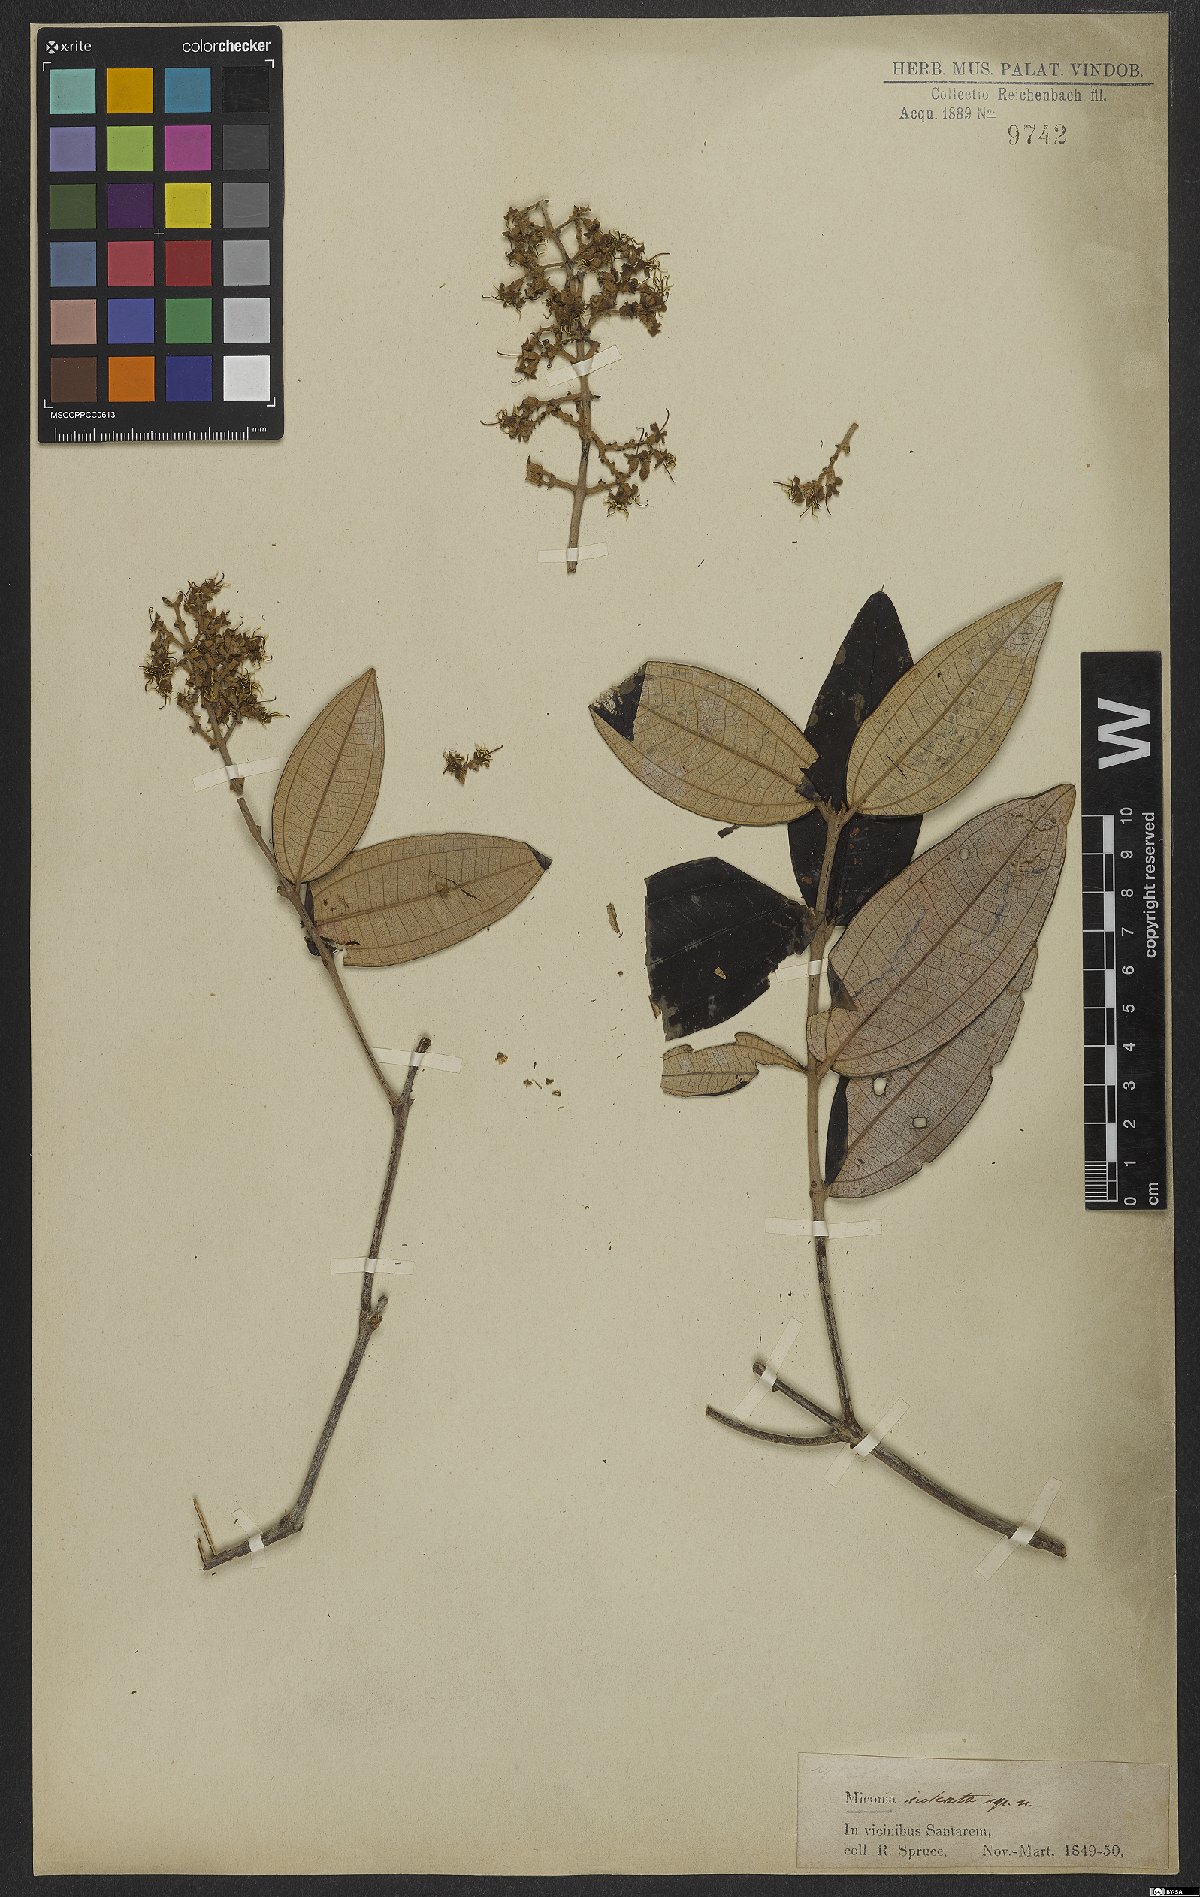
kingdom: Plantae
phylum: Tracheophyta
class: Magnoliopsida
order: Myrtales
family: Melastomataceae
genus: Miconia
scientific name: Miconia sulcata
